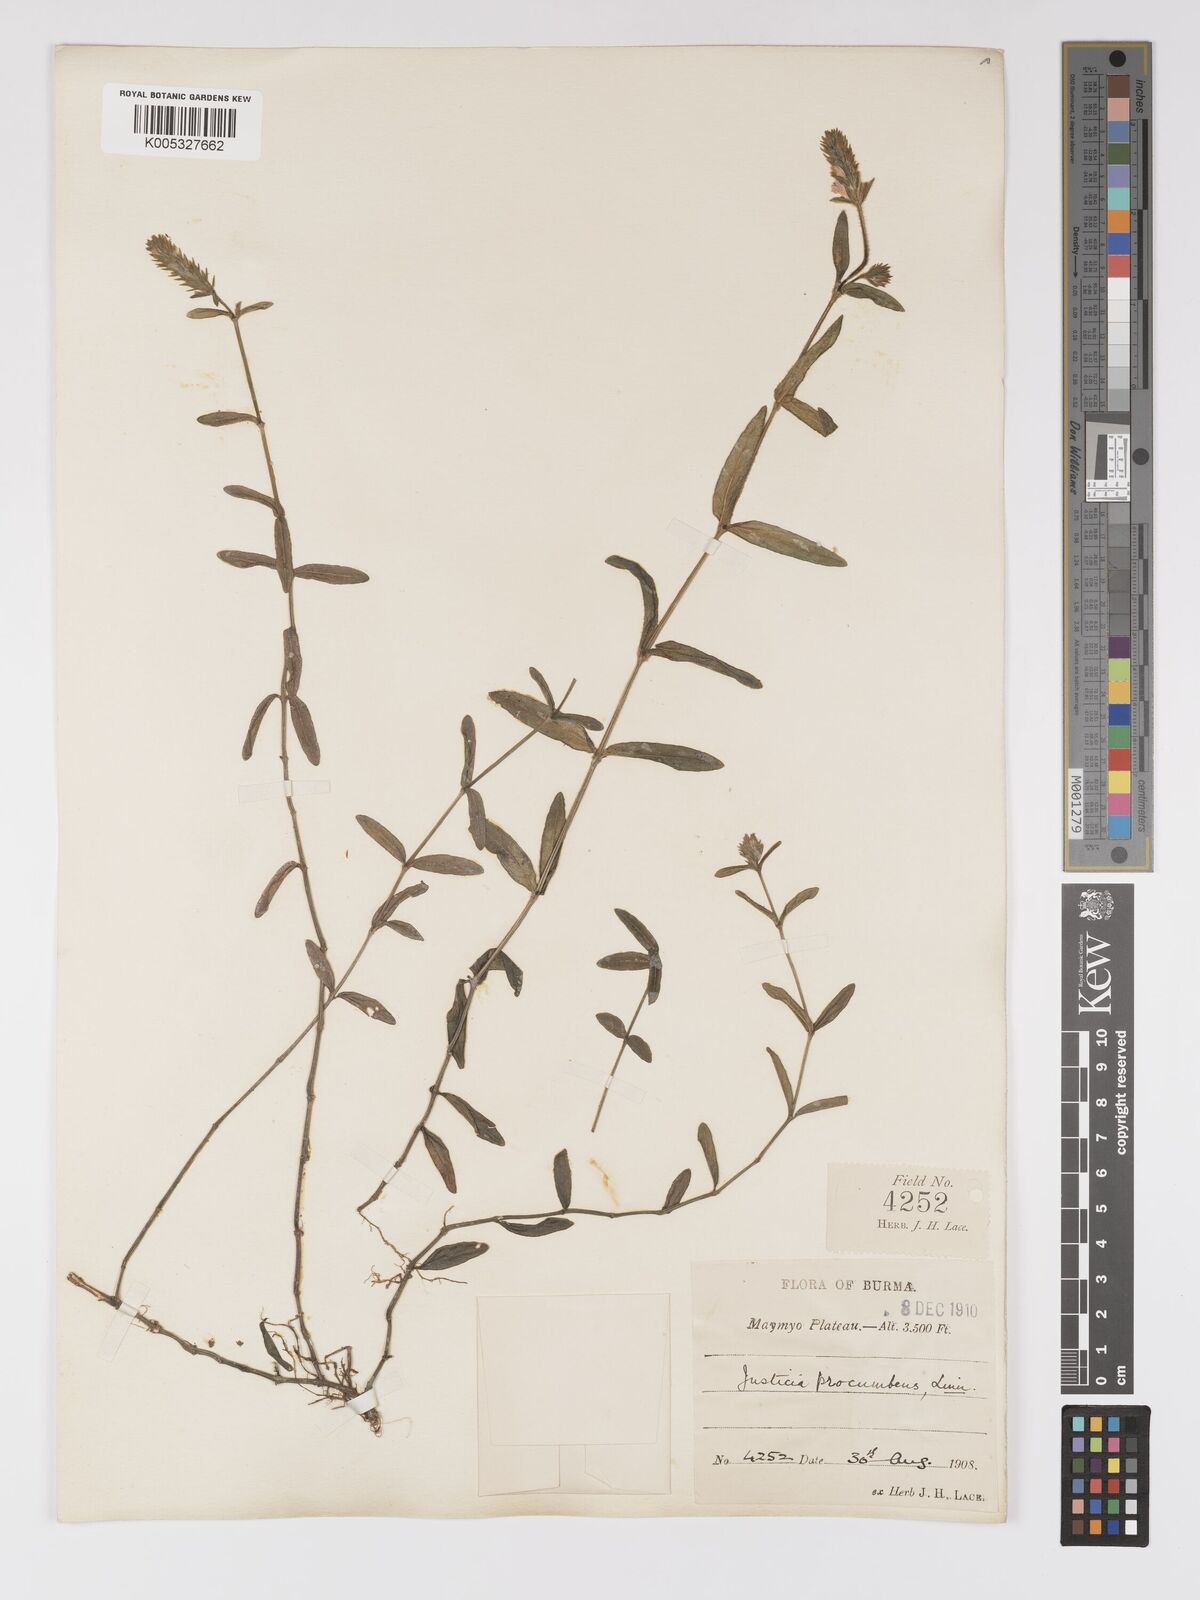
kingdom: Plantae
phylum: Tracheophyta
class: Magnoliopsida
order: Lamiales
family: Acanthaceae
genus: Rostellularia
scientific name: Rostellularia latispica
